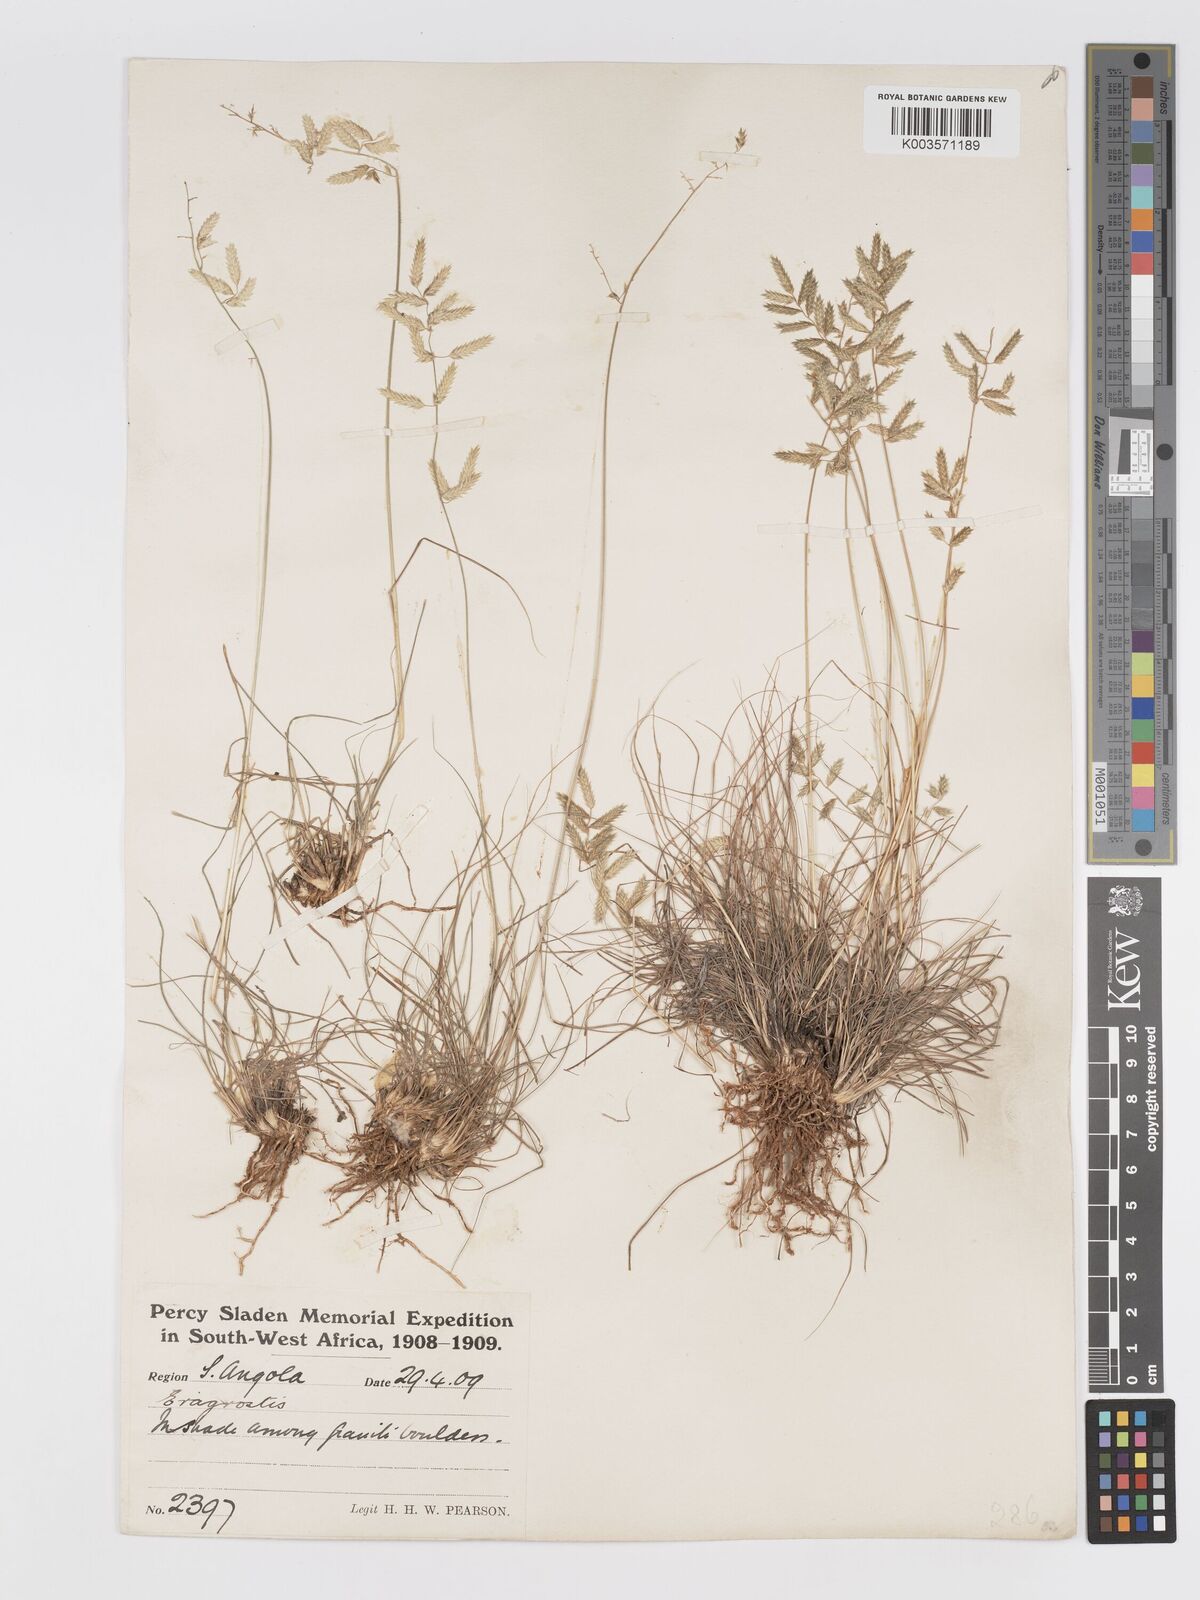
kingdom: Plantae
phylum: Tracheophyta
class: Liliopsida
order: Poales
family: Poaceae
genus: Eragrostis
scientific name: Eragrostis nindensis
